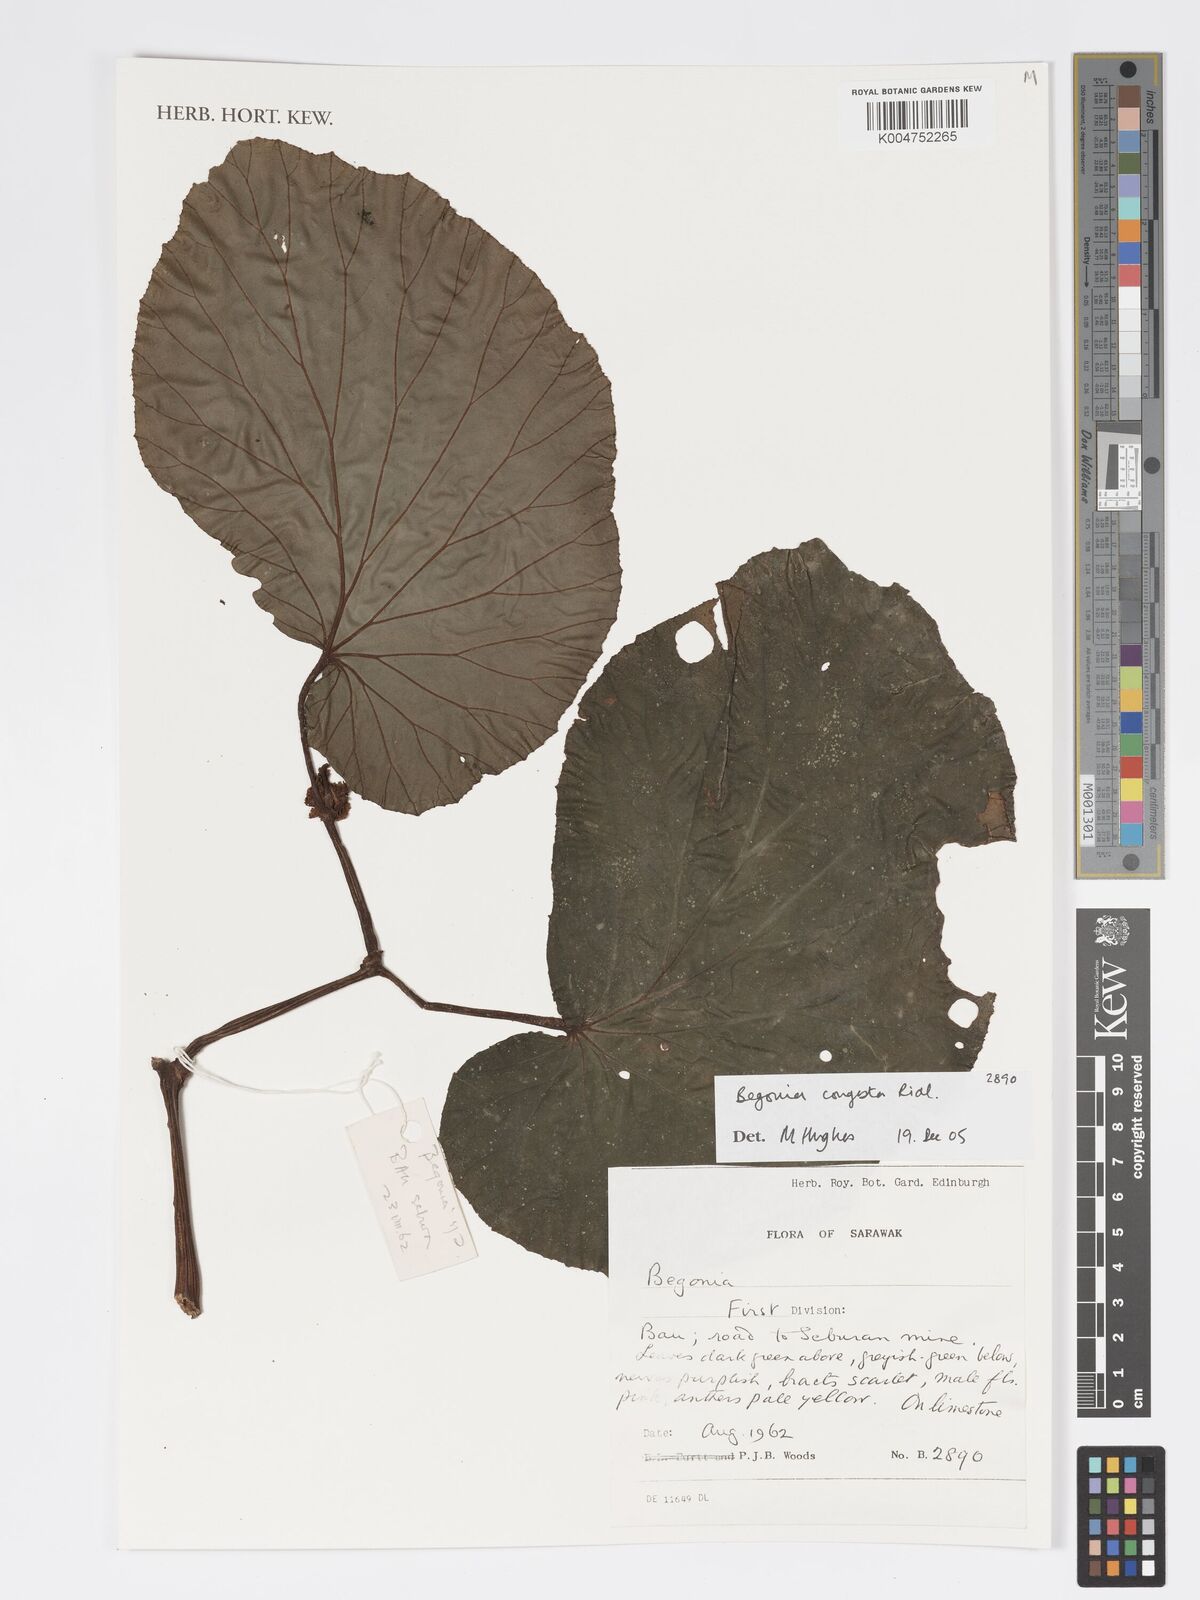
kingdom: Plantae
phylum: Tracheophyta
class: Magnoliopsida
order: Cucurbitales
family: Begoniaceae
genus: Begonia
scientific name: Begonia congesta
